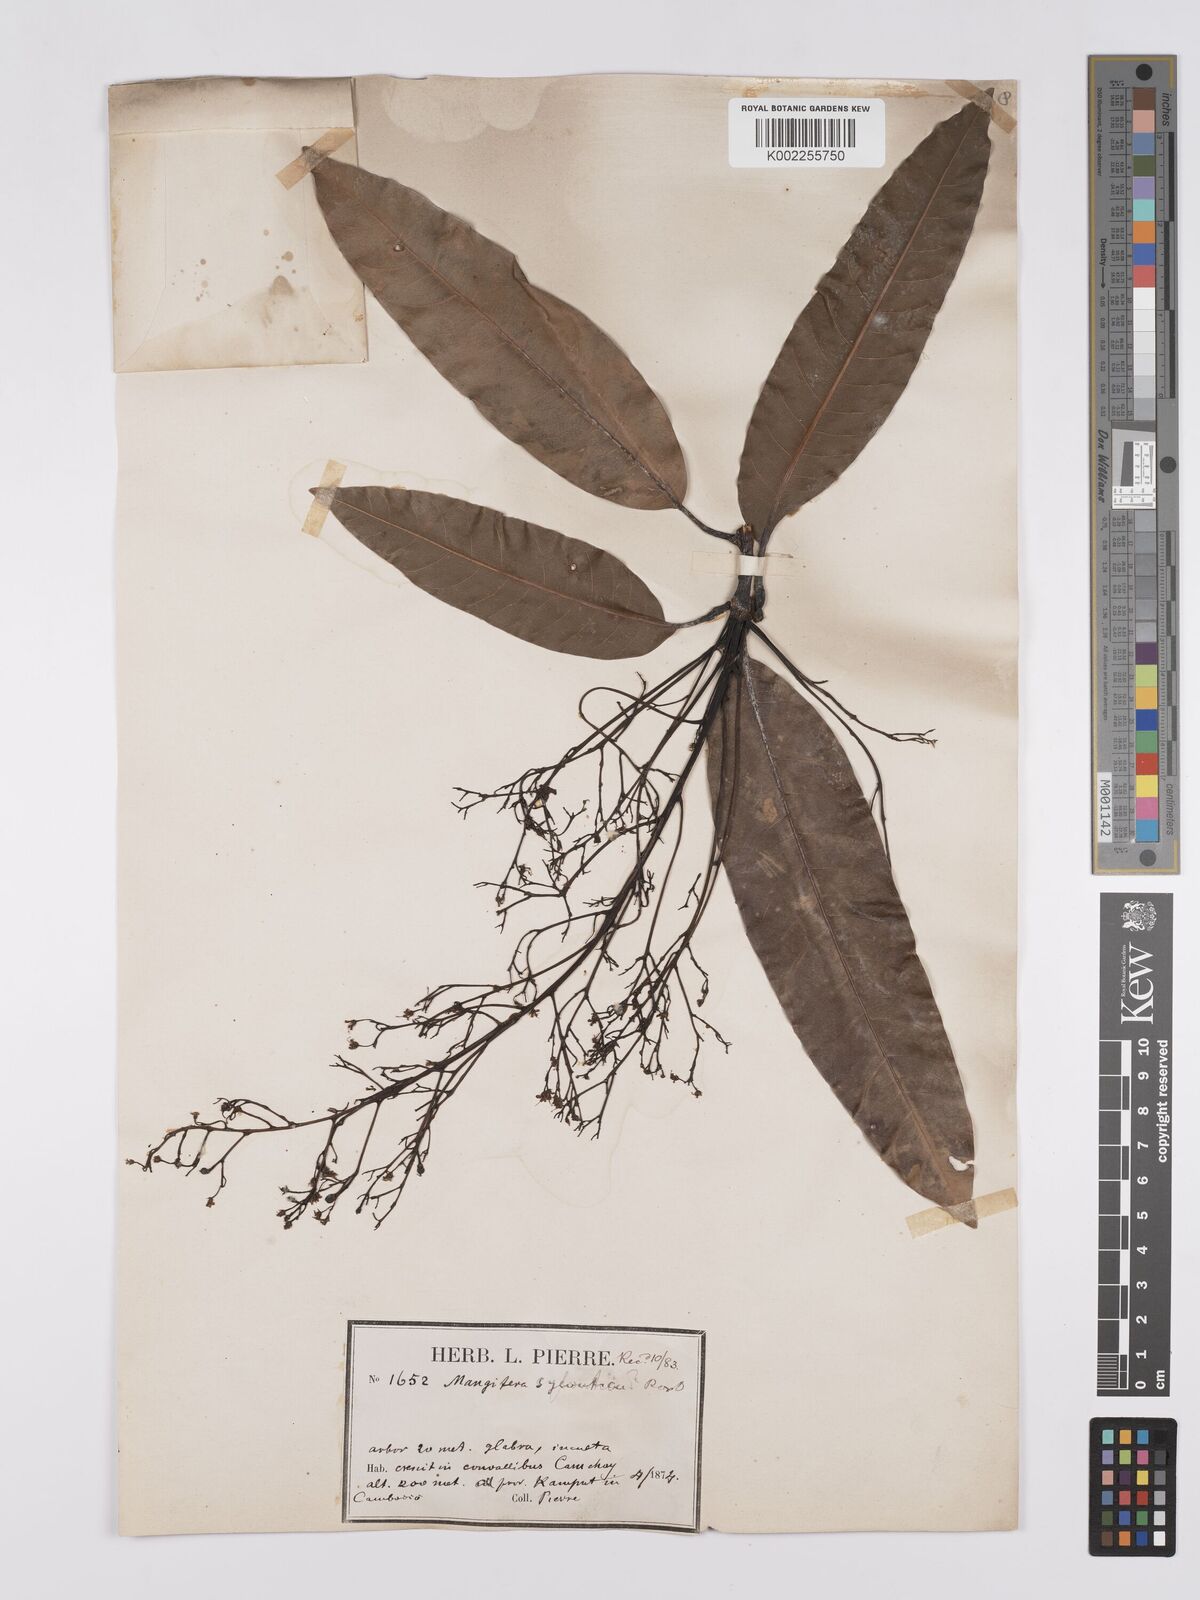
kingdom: Plantae
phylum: Tracheophyta
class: Magnoliopsida
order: Sapindales
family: Anacardiaceae
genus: Mangifera
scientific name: Mangifera sylvatica
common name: Nepal mango
